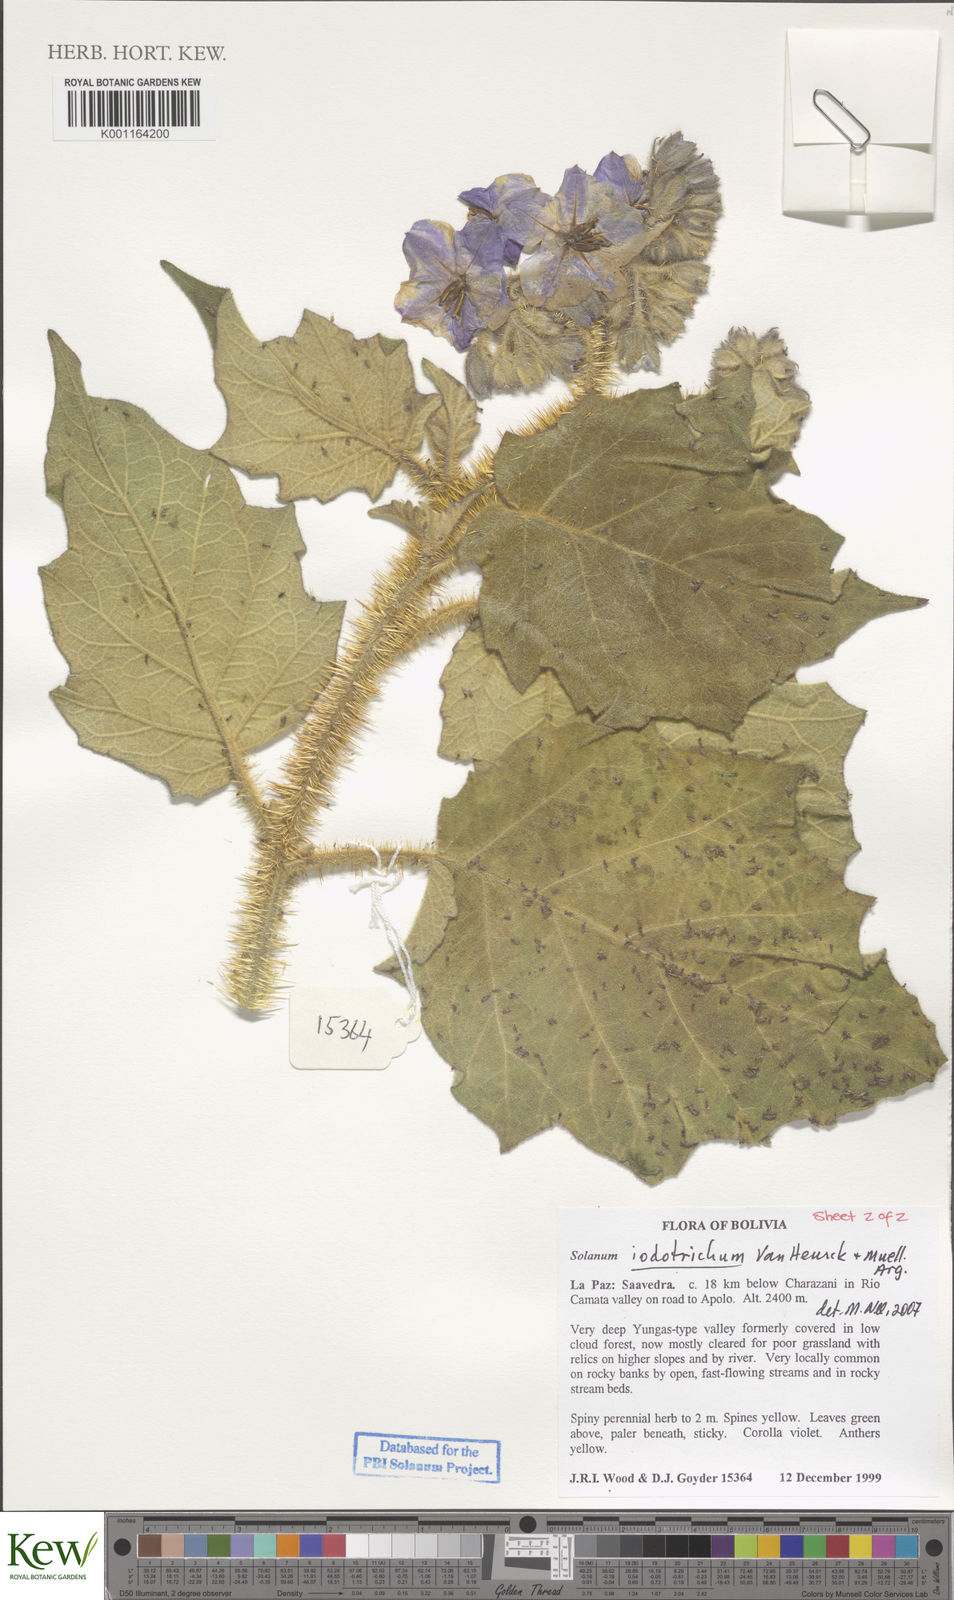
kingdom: Plantae
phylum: Tracheophyta
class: Magnoliopsida
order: Solanales
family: Solanaceae
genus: Solanum
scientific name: Solanum iodotrichum
